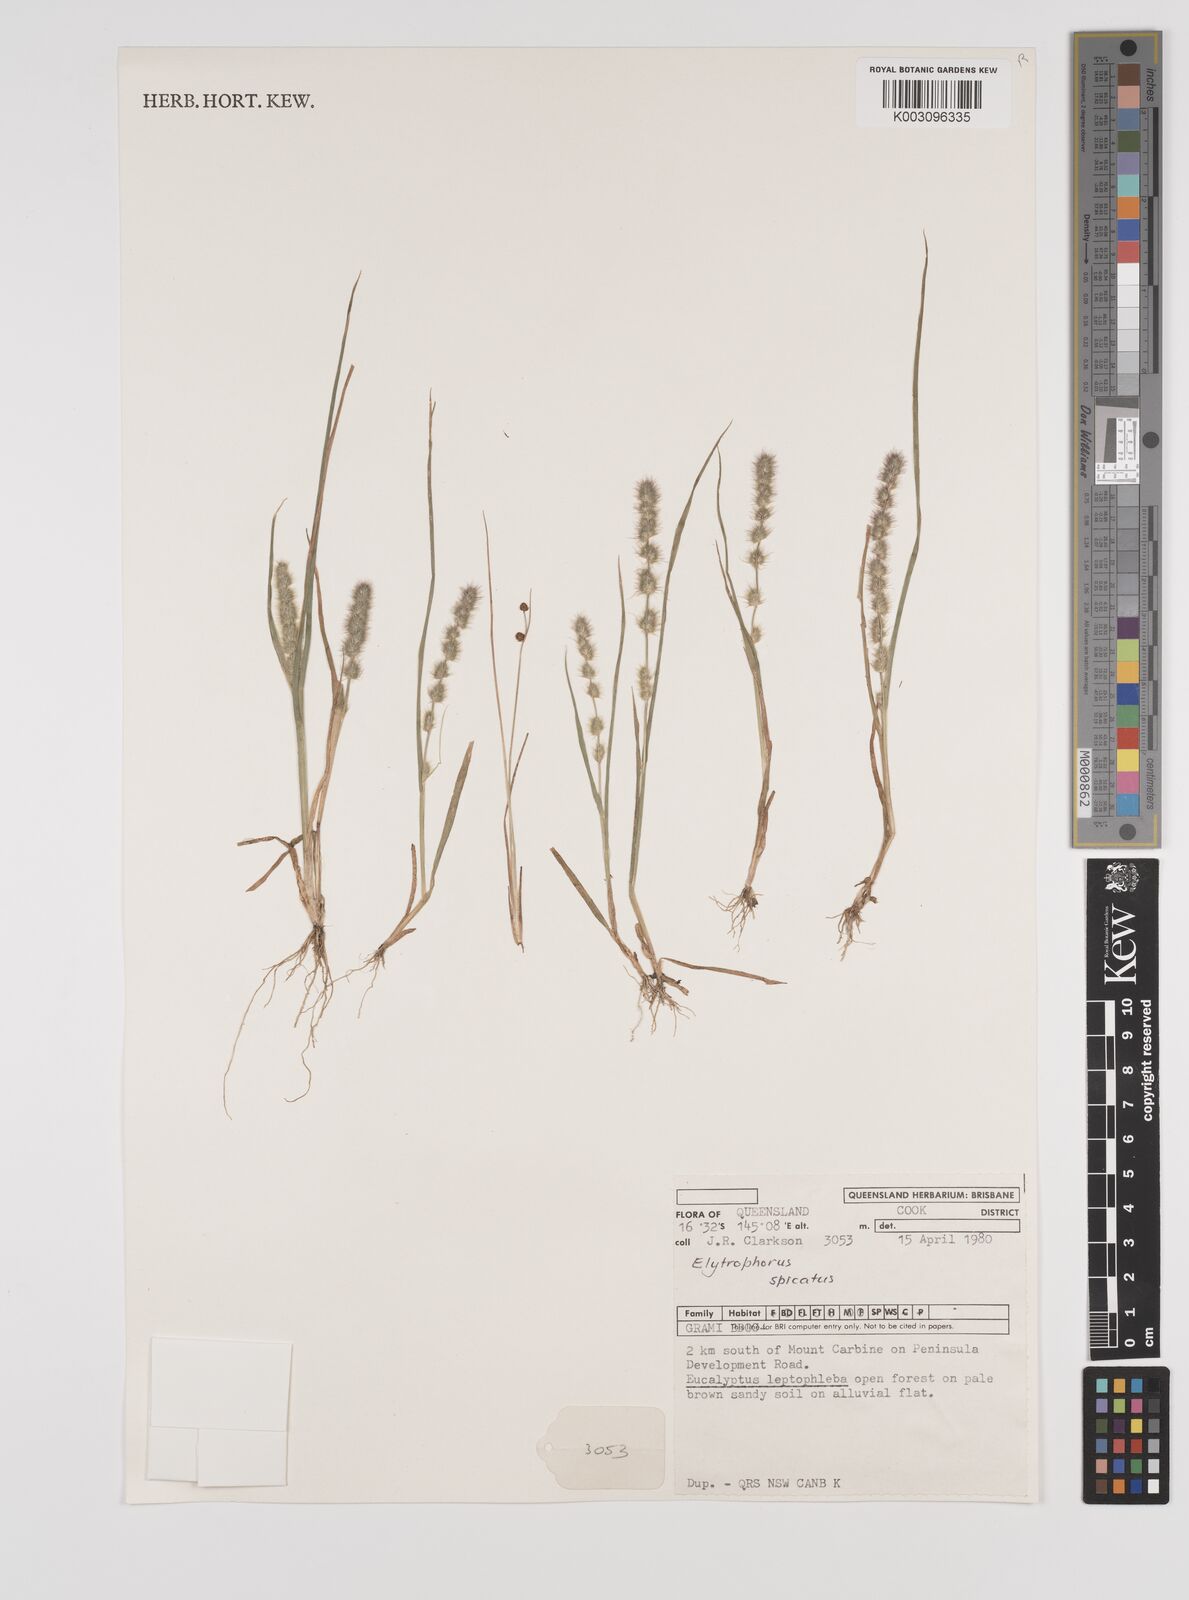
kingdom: Plantae
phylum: Tracheophyta
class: Liliopsida
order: Poales
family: Poaceae
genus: Elytrophorus
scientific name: Elytrophorus spicatus
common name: Spike grass
